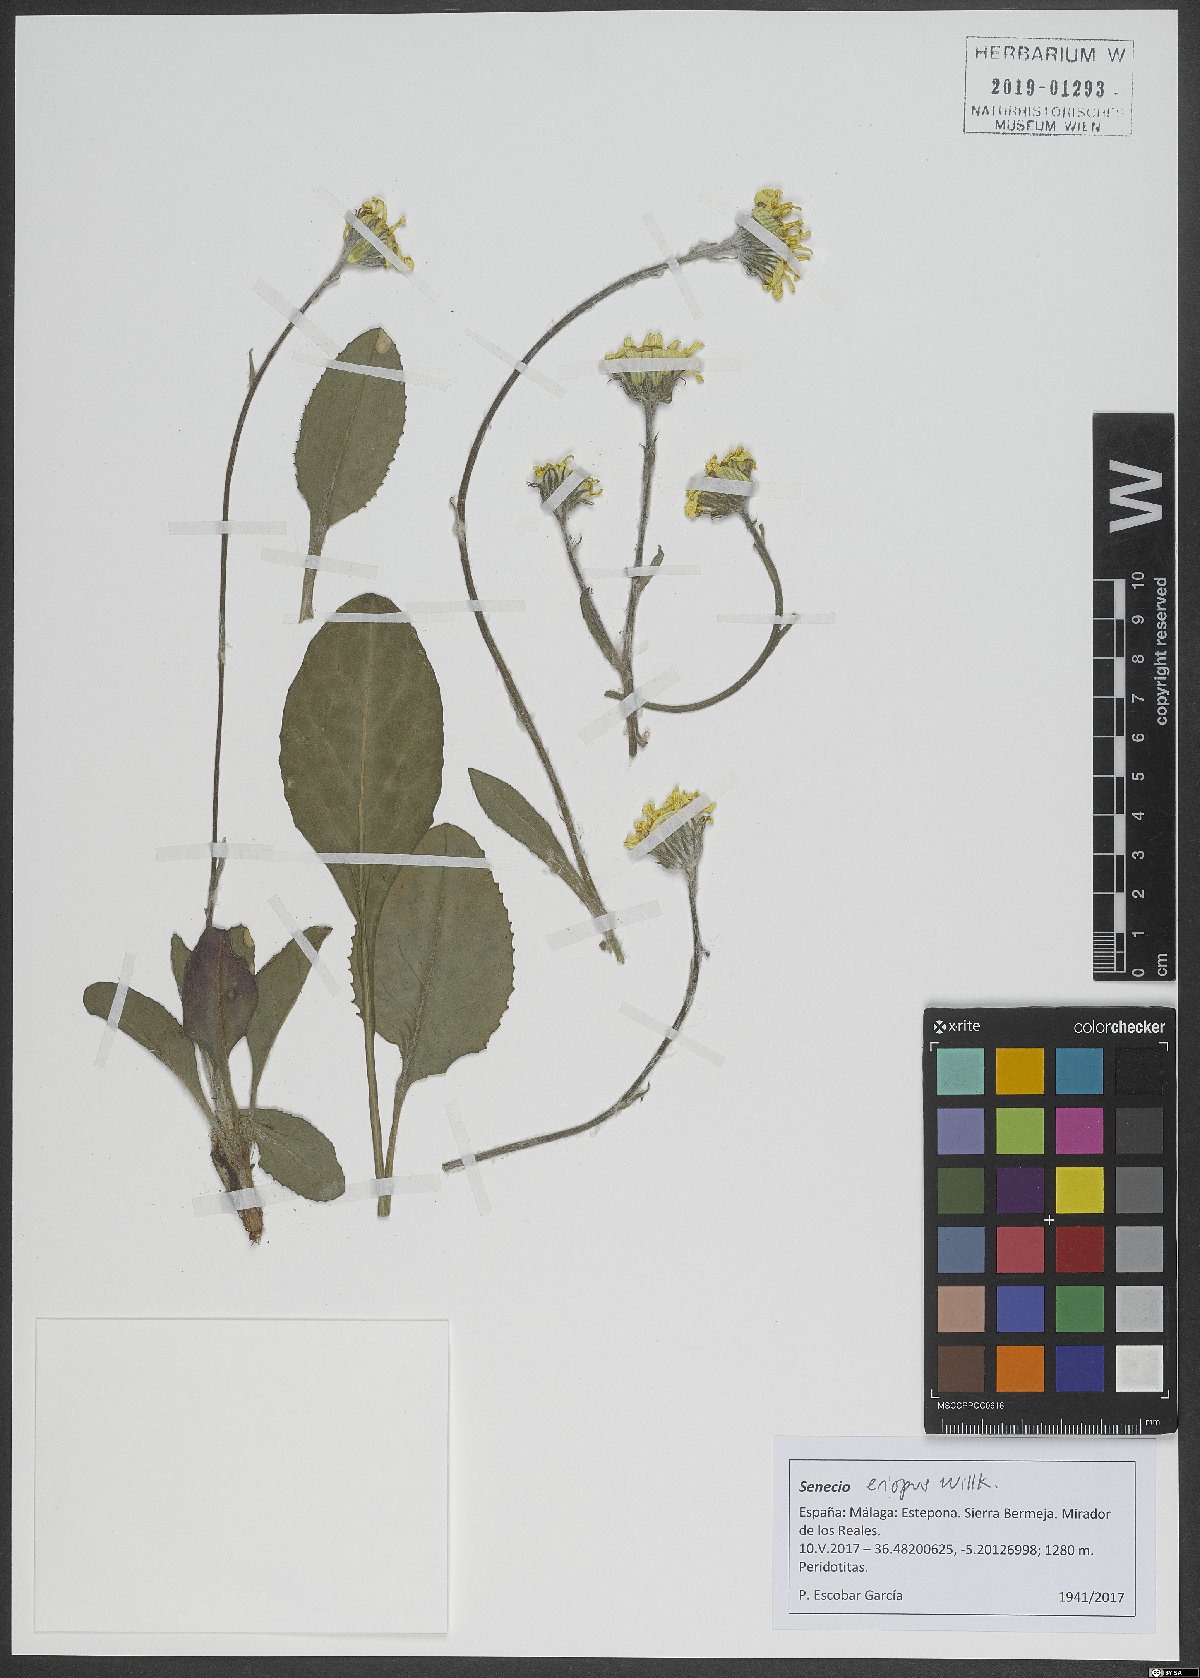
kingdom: Plantae
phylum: Tracheophyta
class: Magnoliopsida
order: Asterales
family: Asteraceae
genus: Senecio
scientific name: Senecio eriopus
